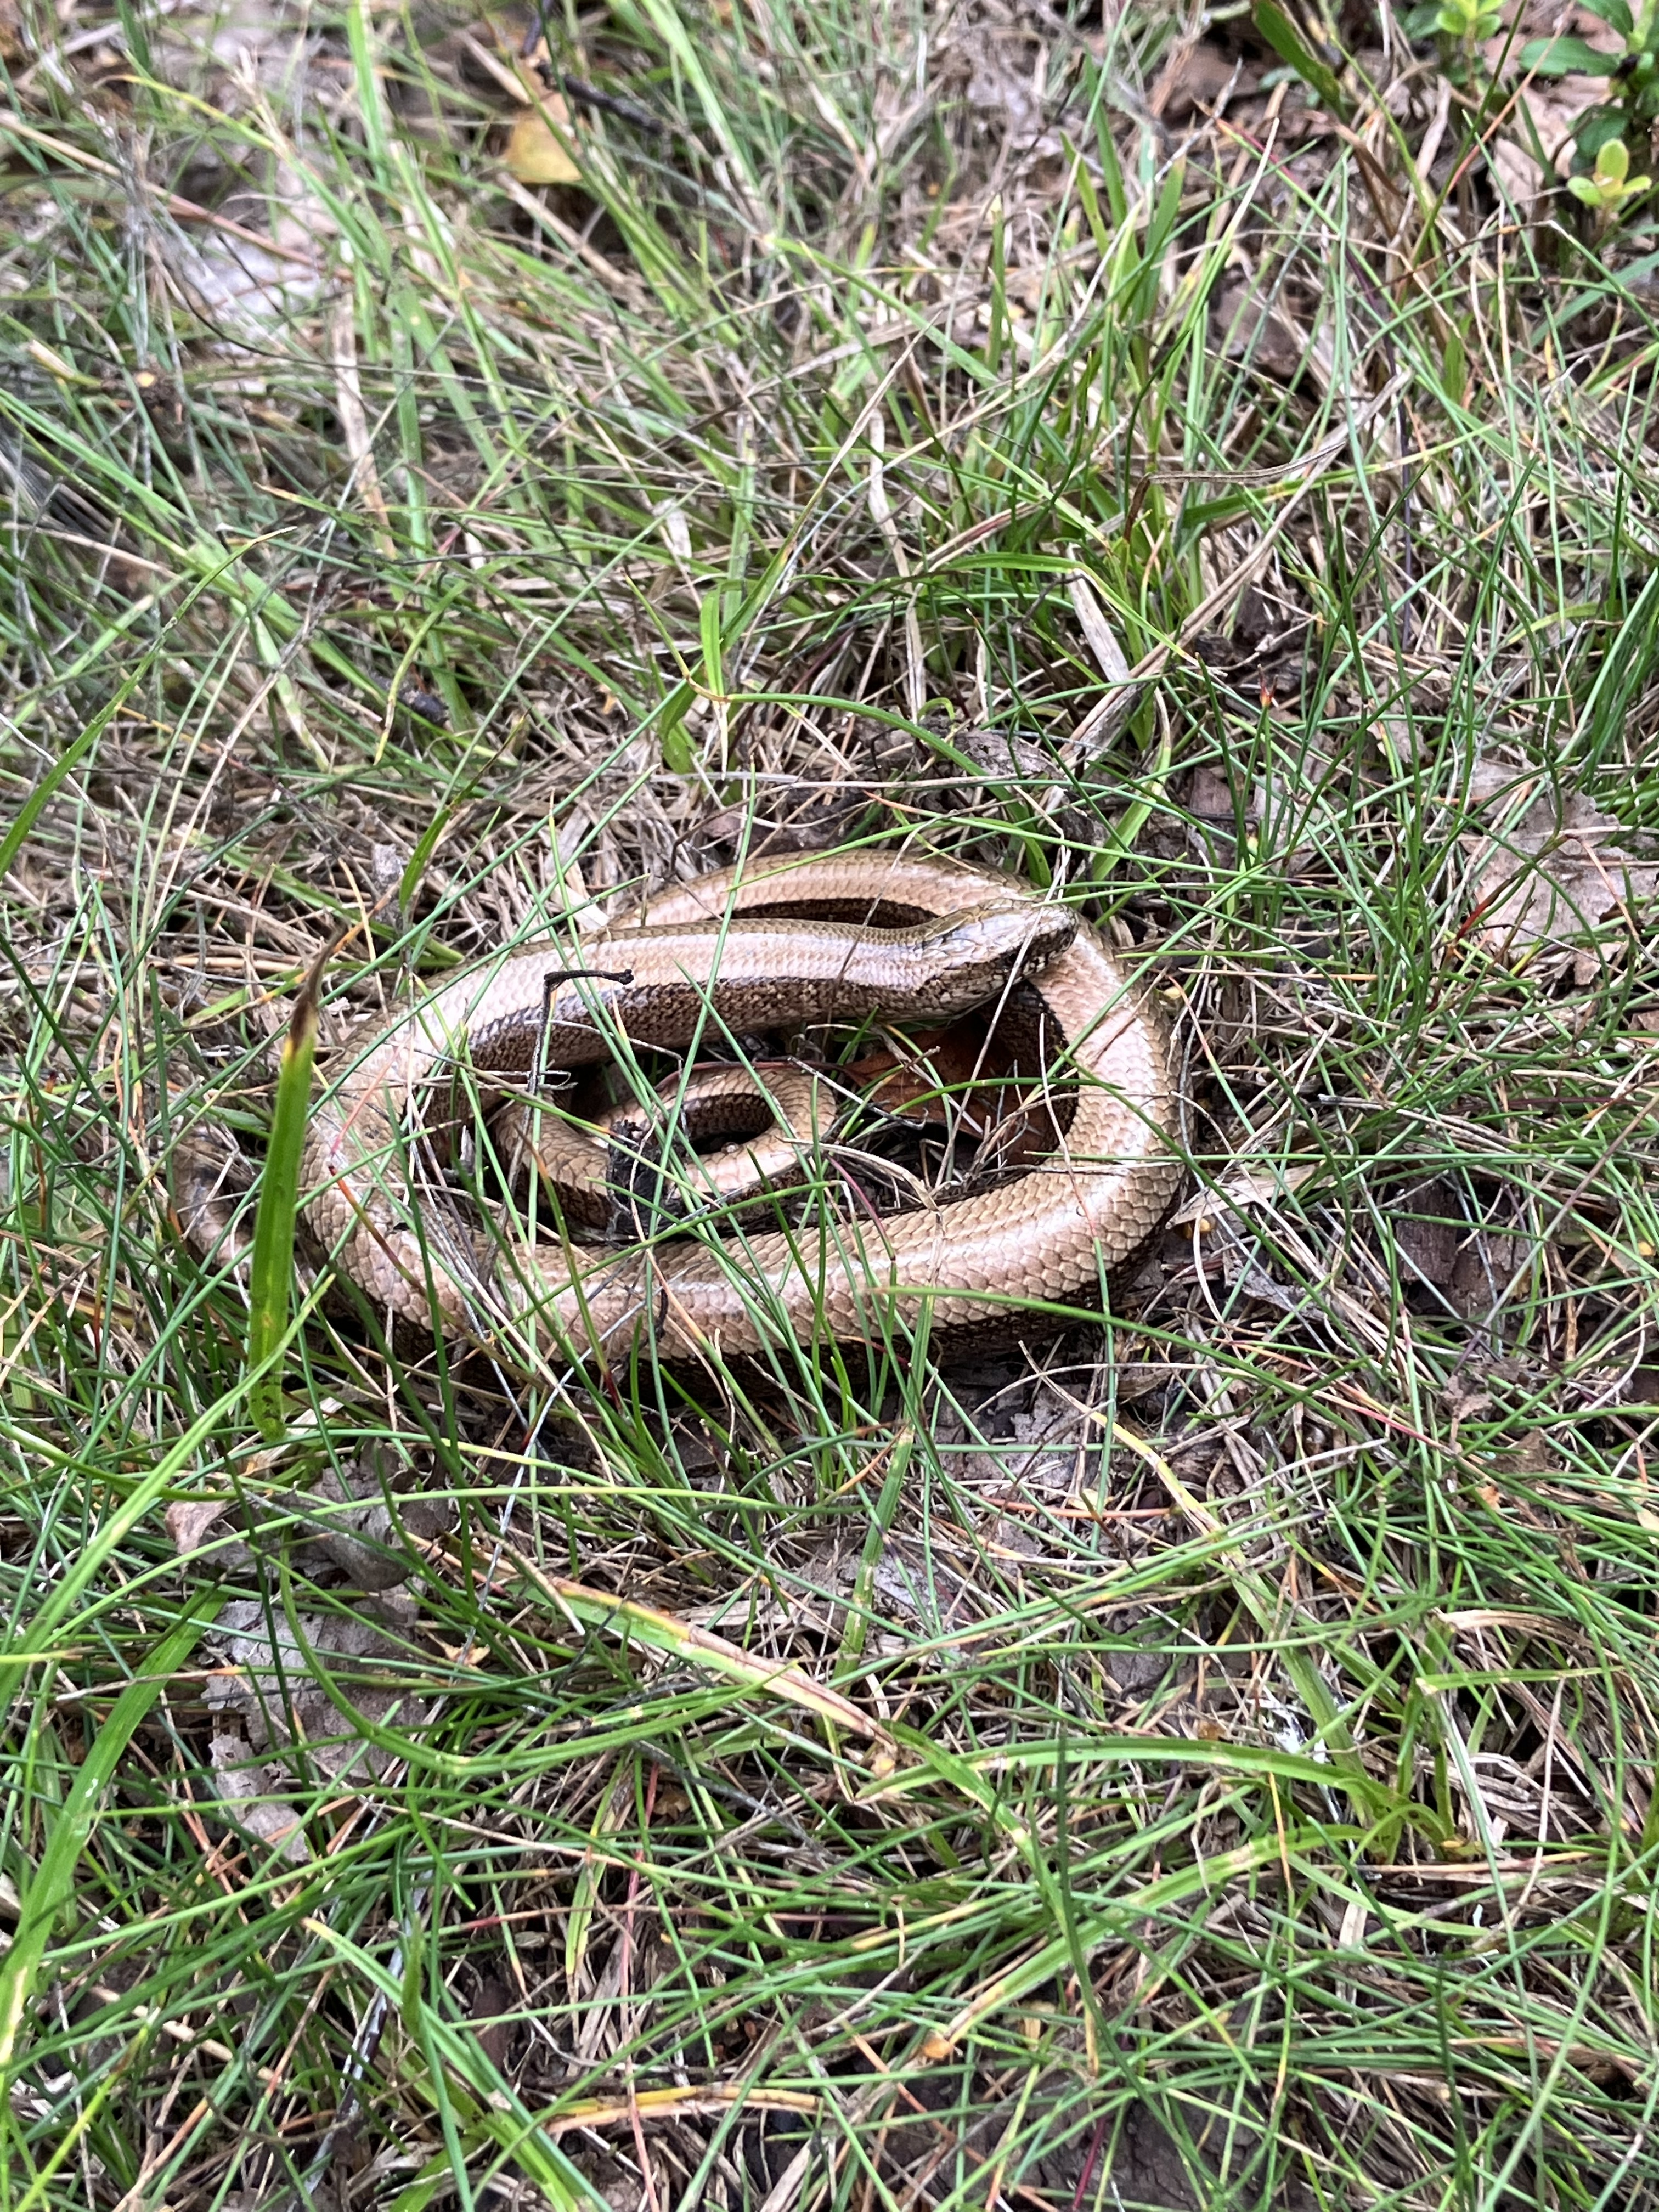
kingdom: Animalia
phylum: Chordata
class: Squamata
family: Anguidae
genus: Anguis
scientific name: Anguis colchica
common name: Slow worm
